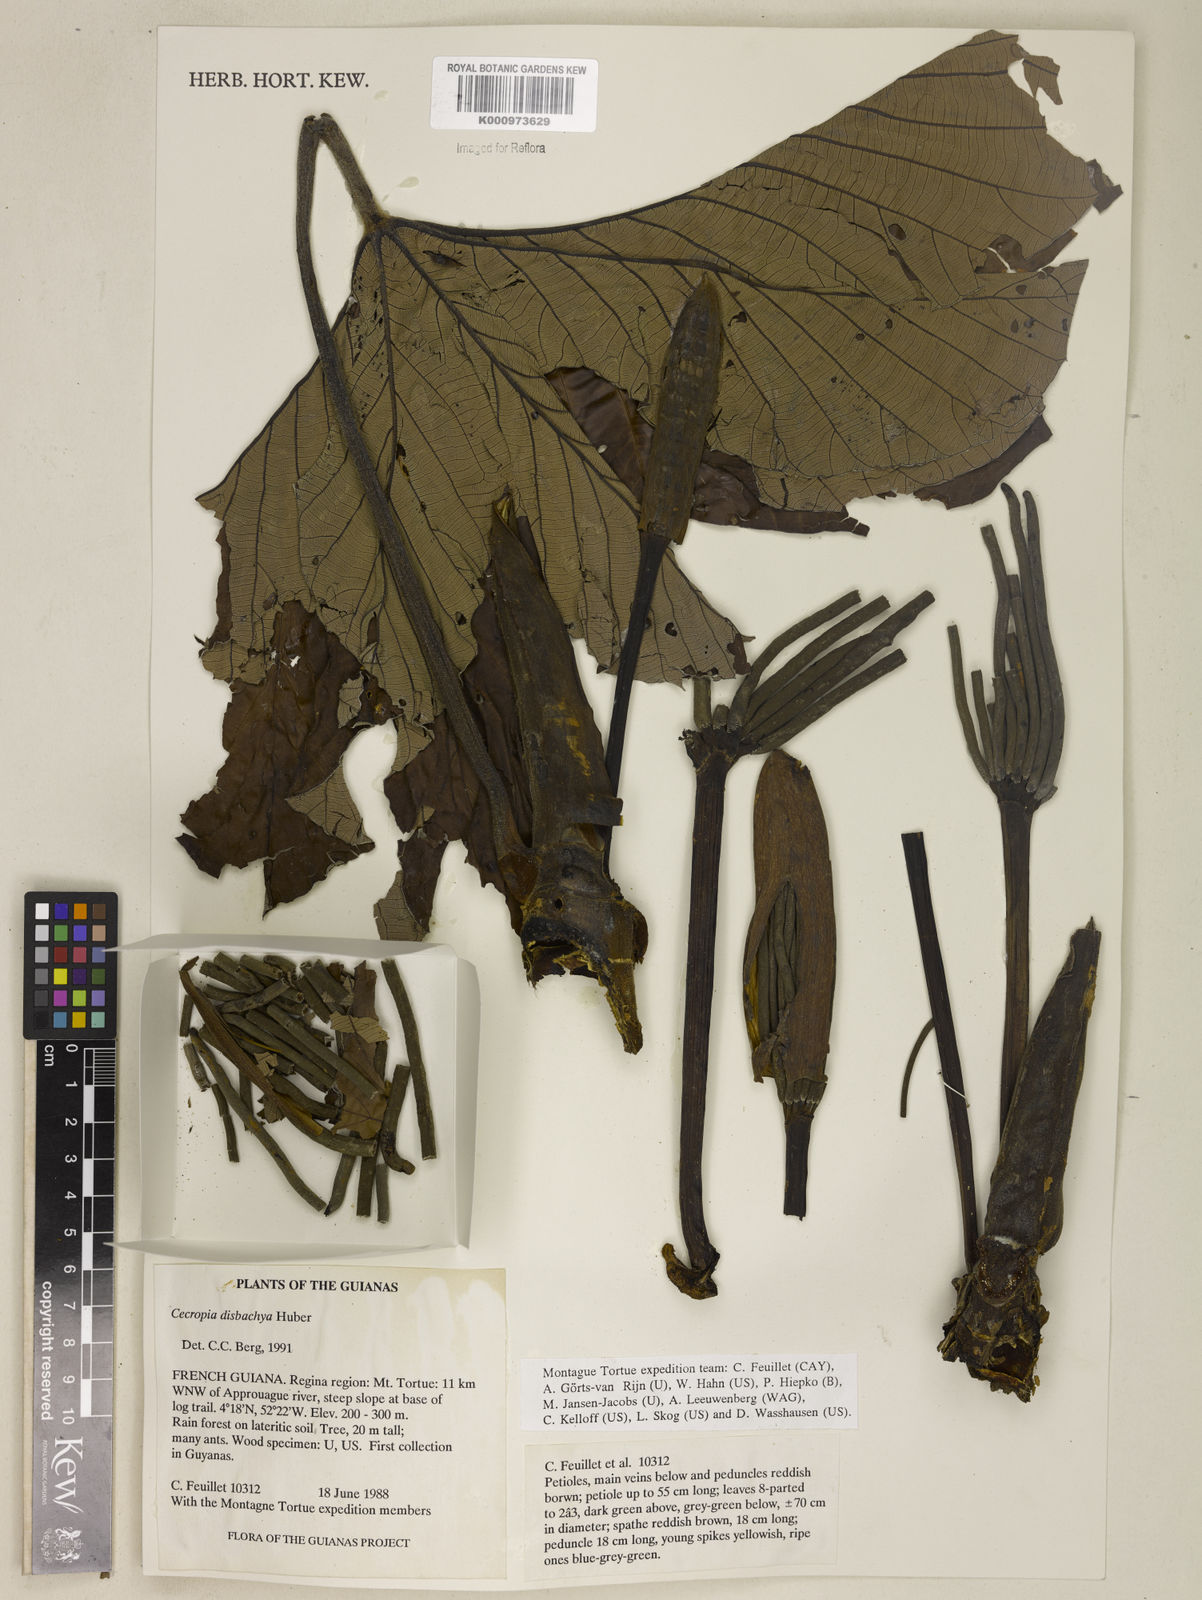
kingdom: Plantae
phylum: Tracheophyta
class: Magnoliopsida
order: Rosales
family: Urticaceae
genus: Cecropia
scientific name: Cecropia distachya
